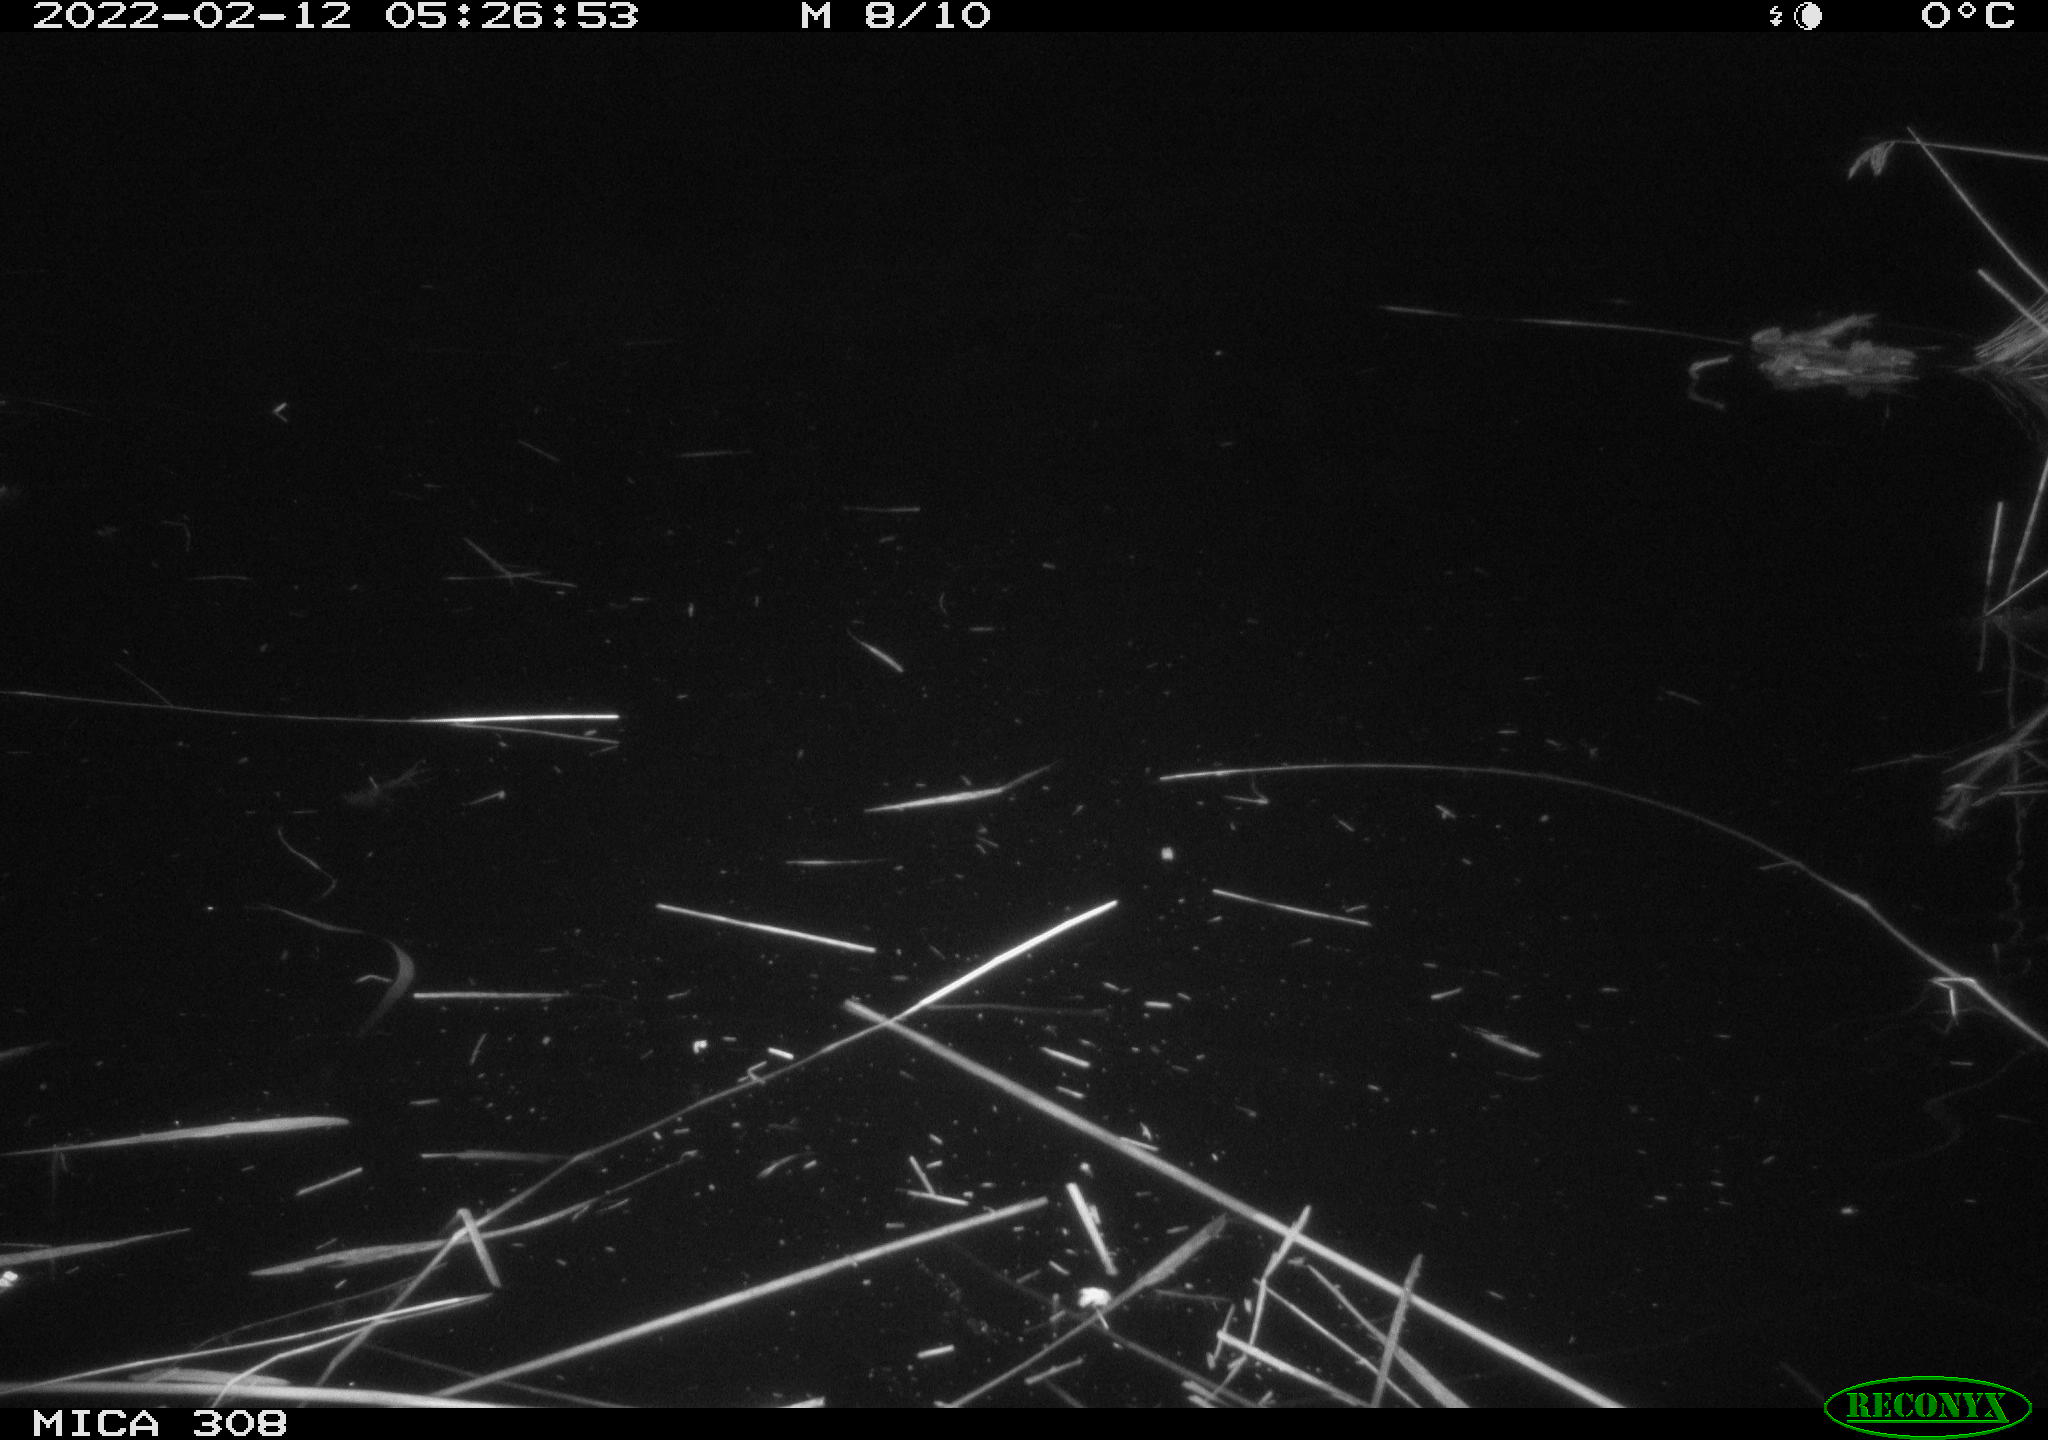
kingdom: Animalia
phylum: Chordata
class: Mammalia
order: Rodentia
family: Cricetidae
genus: Ondatra
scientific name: Ondatra zibethicus
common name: Muskrat
